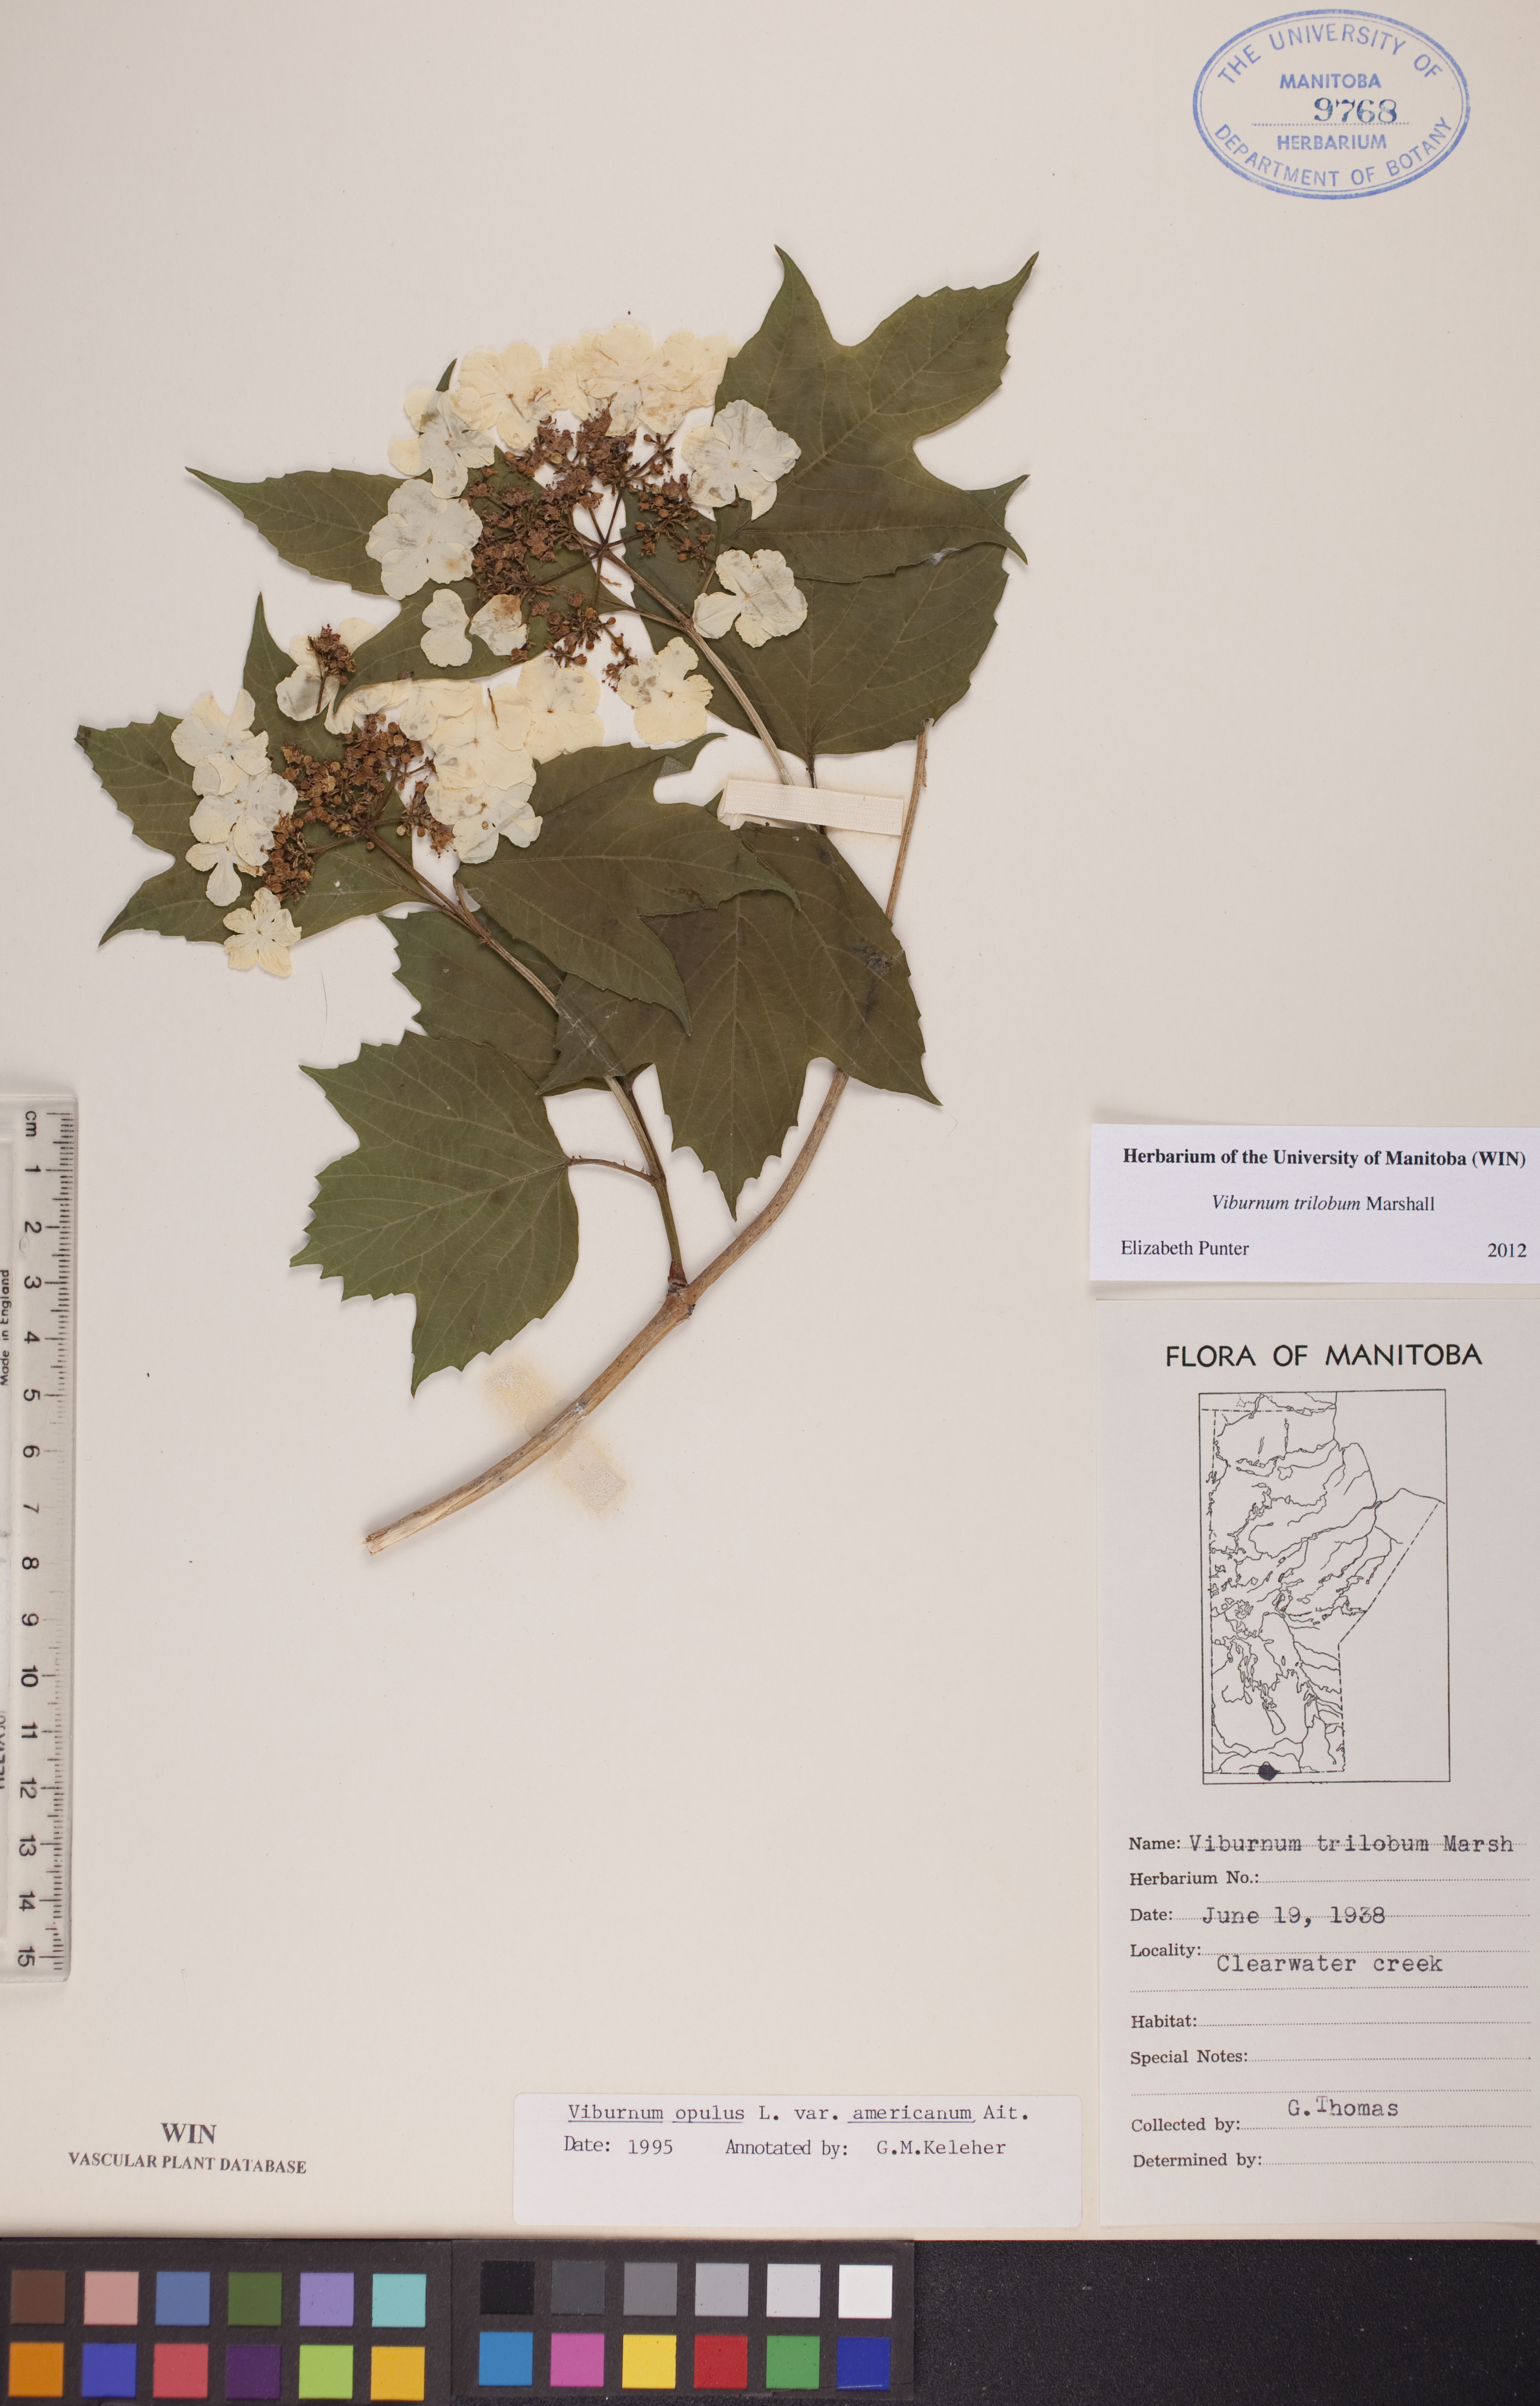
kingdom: Plantae
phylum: Tracheophyta
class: Magnoliopsida
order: Dipsacales
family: Viburnaceae
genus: Viburnum
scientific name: Viburnum trilobum
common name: American cranberrybush
